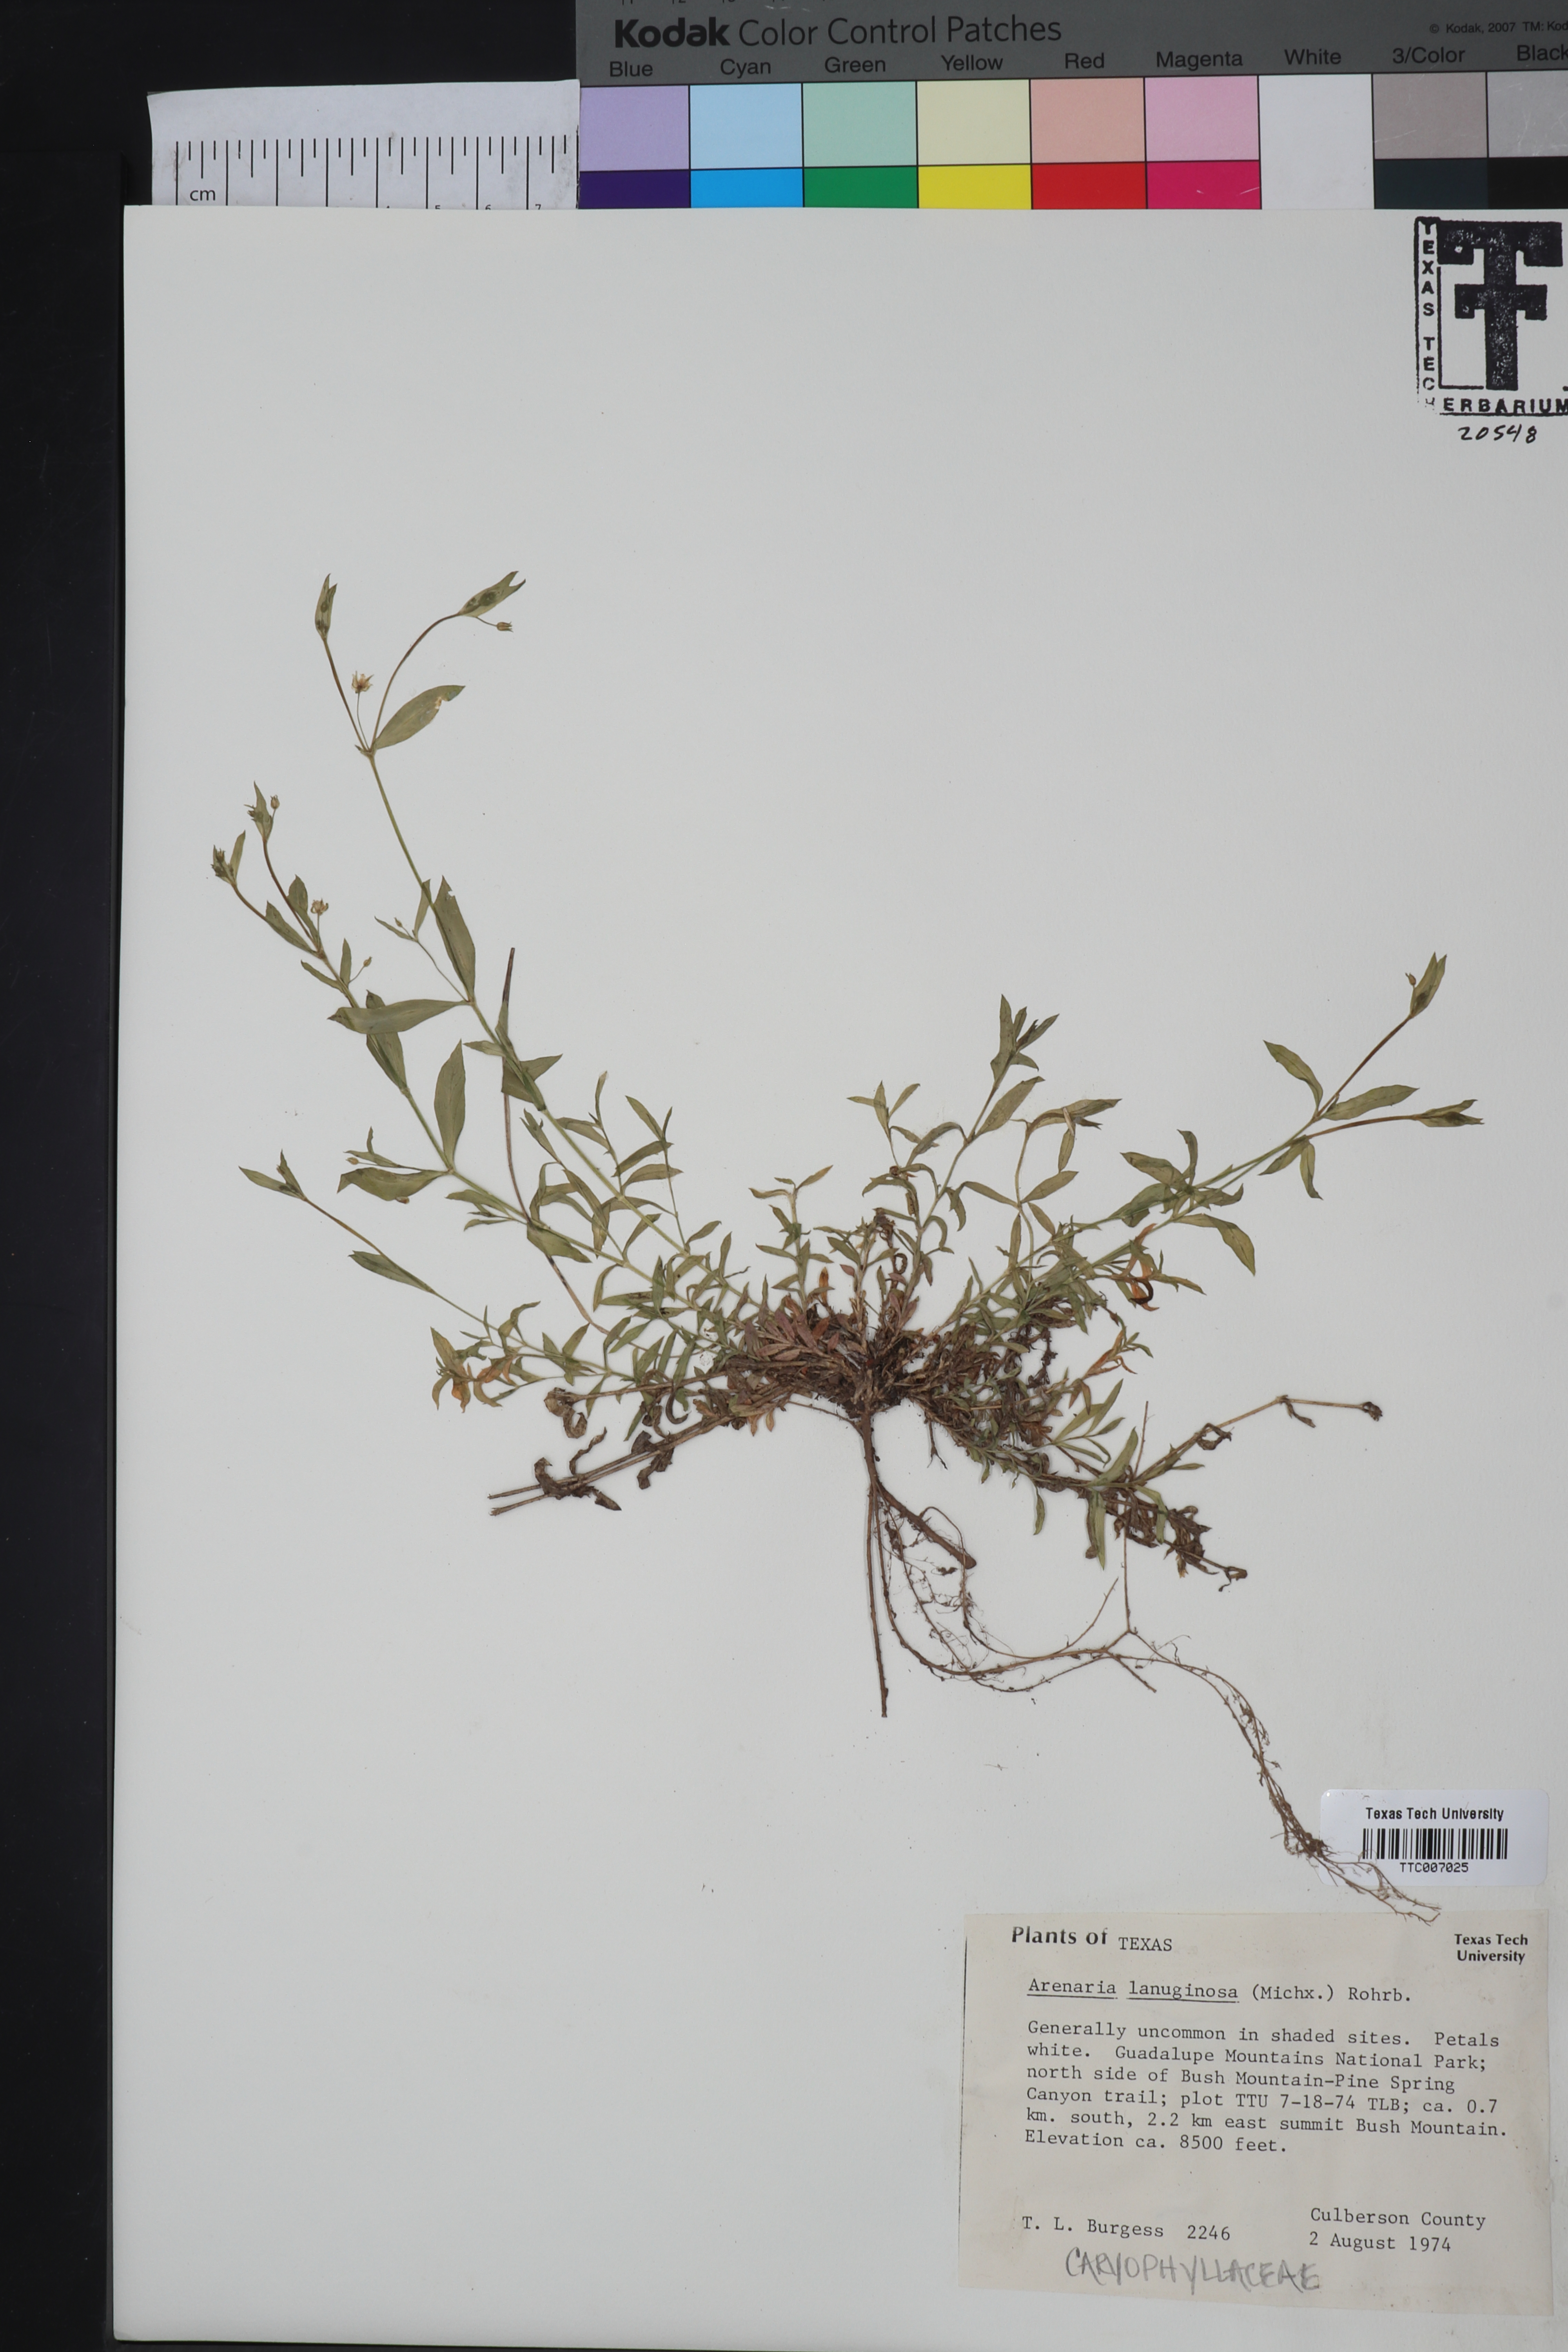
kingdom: Plantae
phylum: Tracheophyta
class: Magnoliopsida
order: Caryophyllales
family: Caryophyllaceae
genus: Arenaria
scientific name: Arenaria lanuginosa
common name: Spread sandwort
